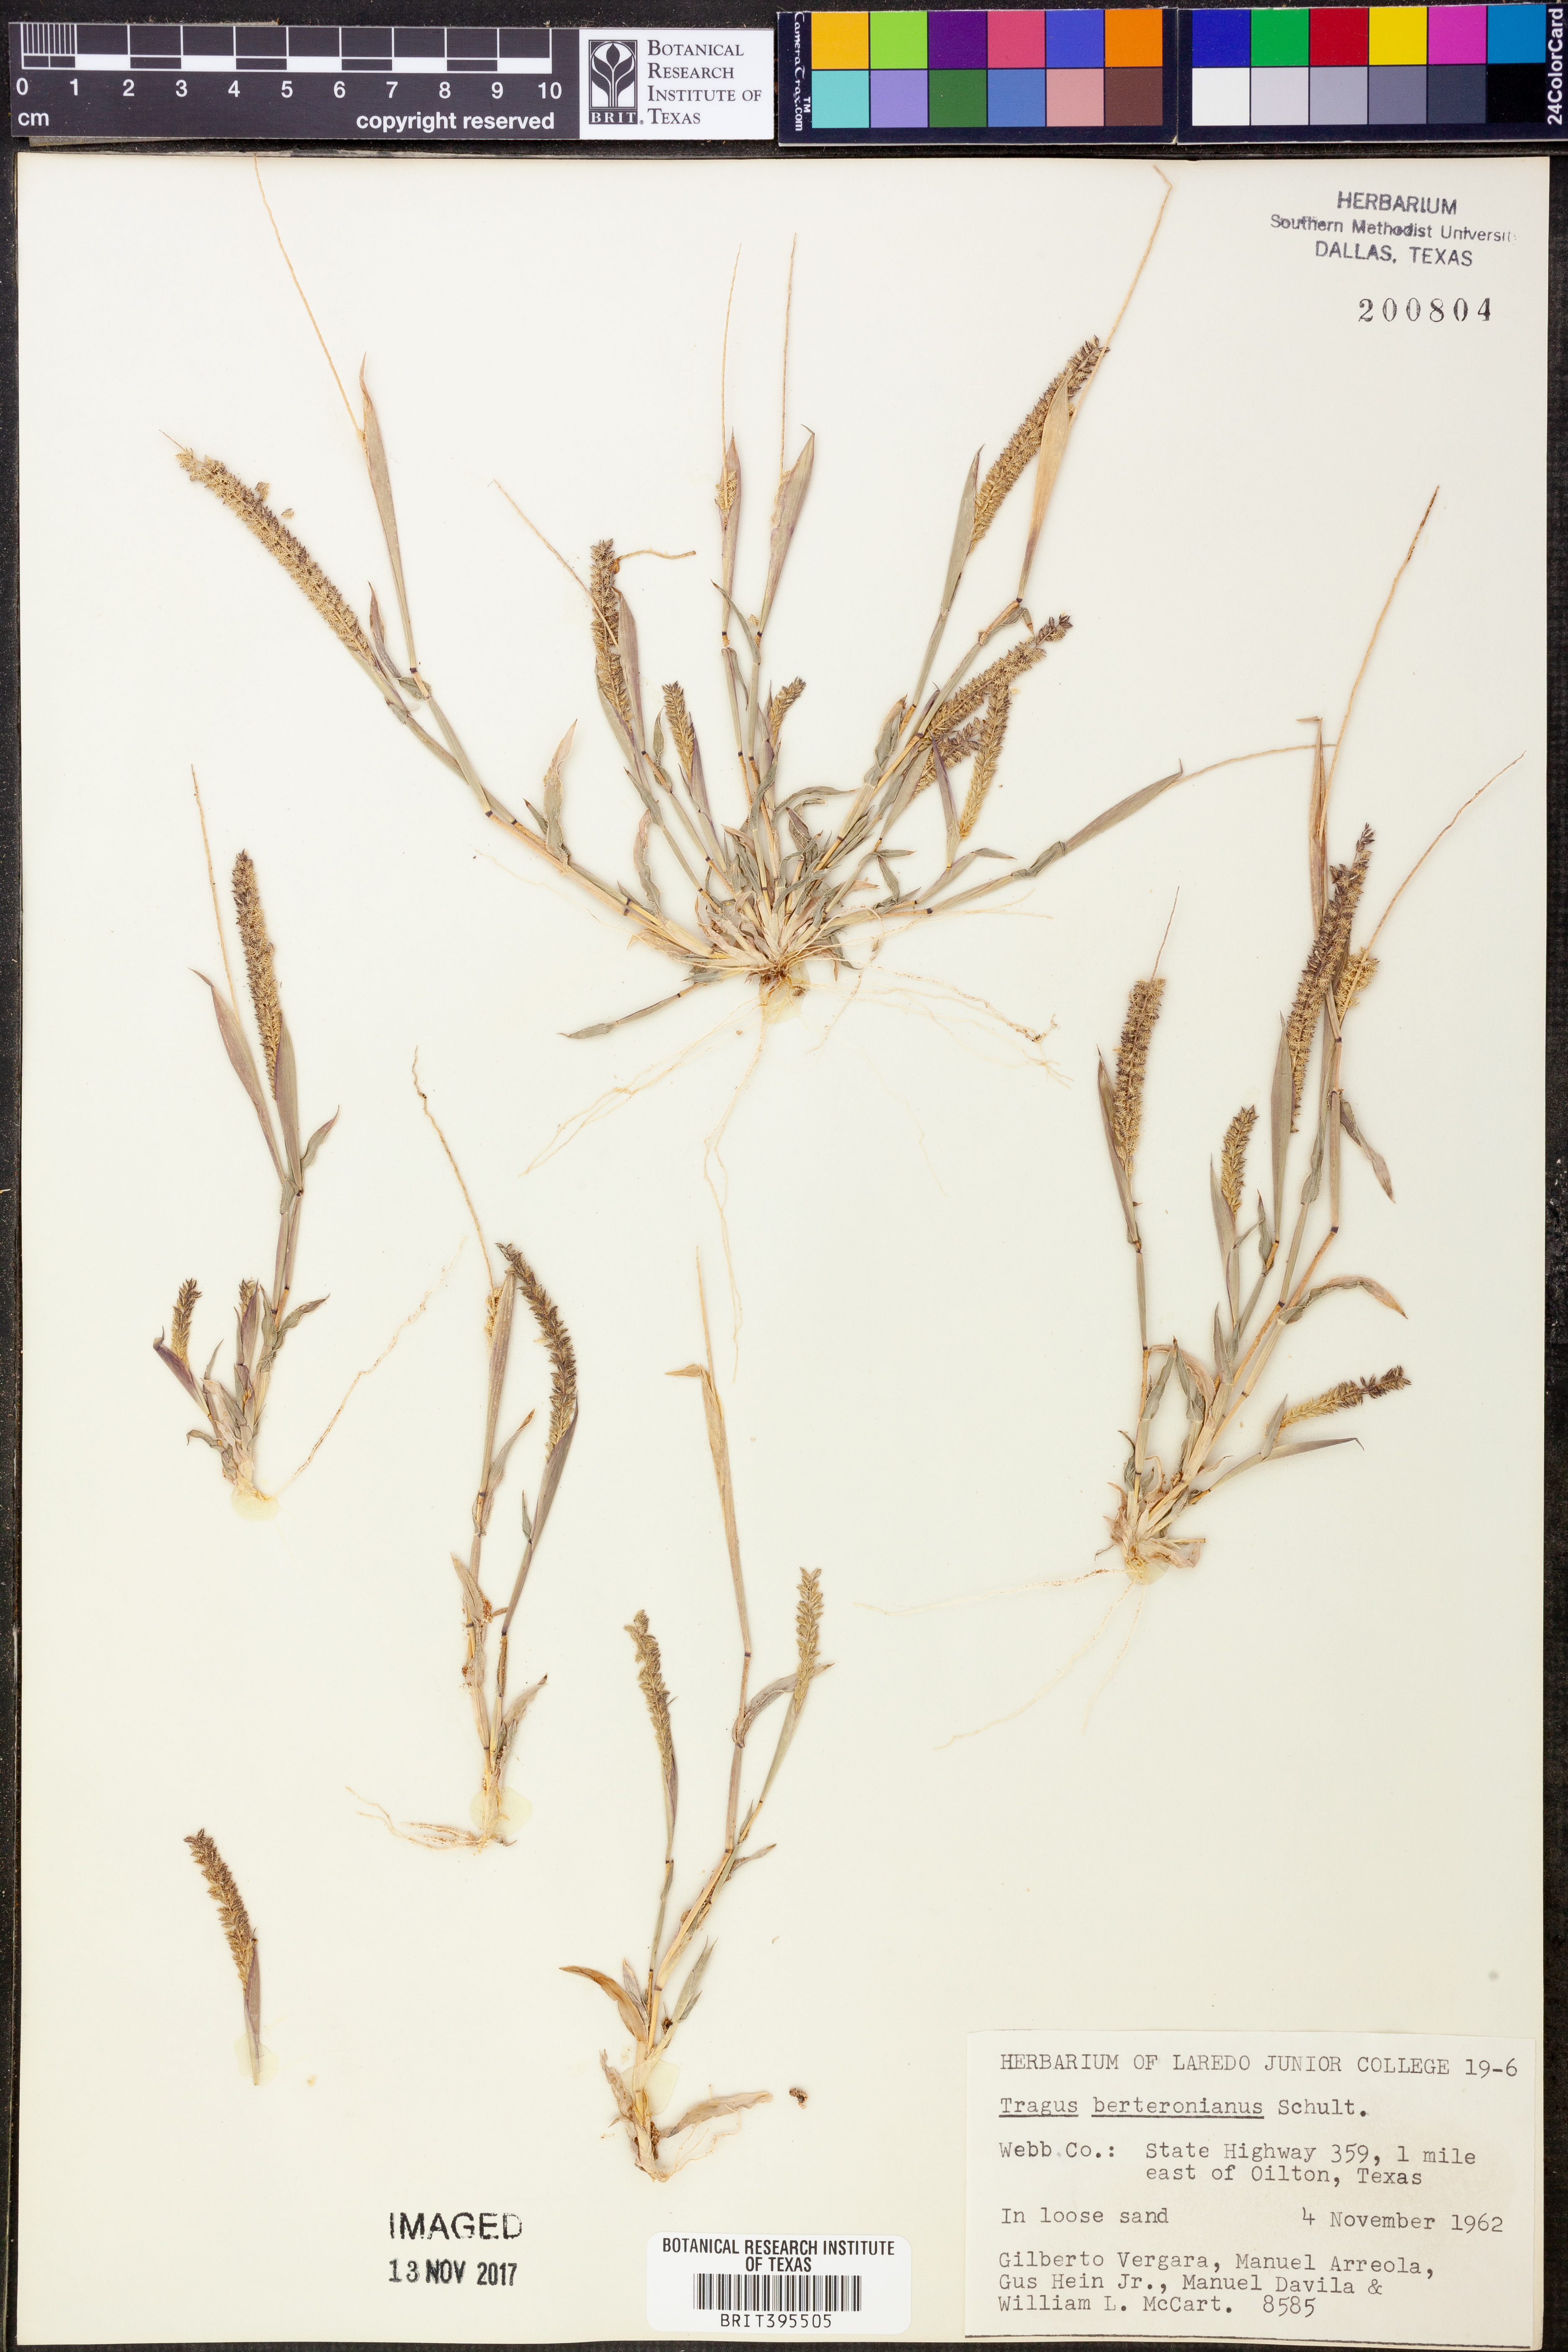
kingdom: Plantae
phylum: Tracheophyta
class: Liliopsida
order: Poales
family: Poaceae
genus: Tragus
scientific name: Tragus berteronianus
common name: African bur-grass
